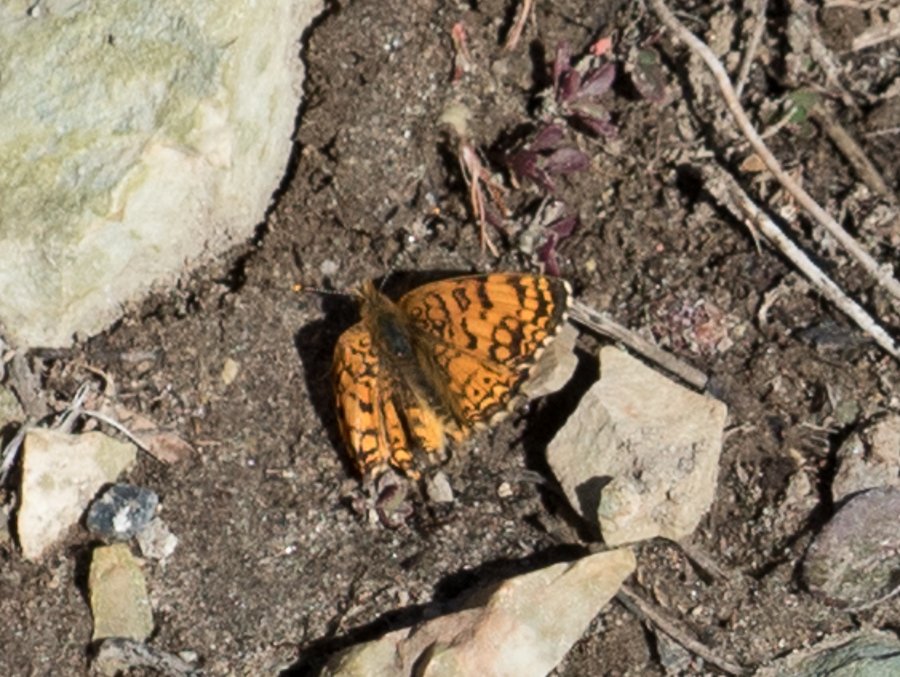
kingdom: Animalia
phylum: Arthropoda
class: Insecta
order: Lepidoptera
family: Nymphalidae
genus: Eresia
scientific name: Eresia aveyrona
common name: Mylitta Crescent
